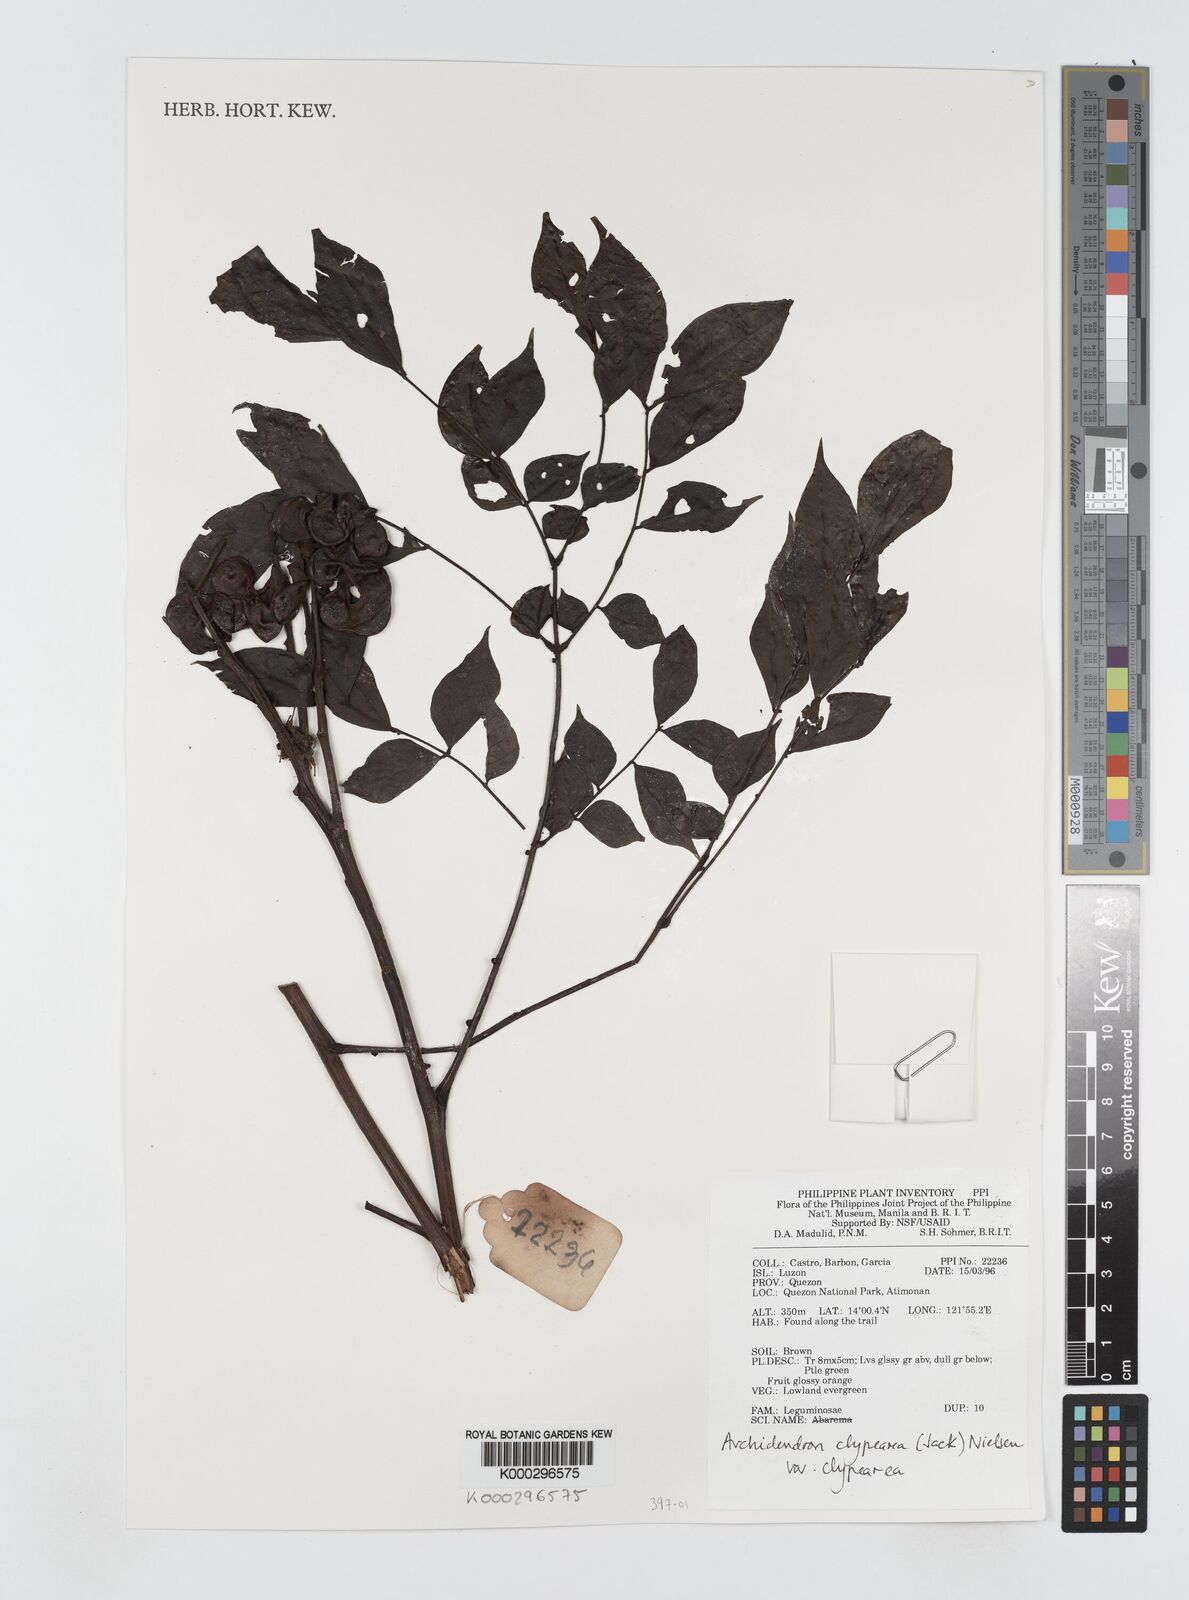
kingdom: Plantae
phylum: Tracheophyta
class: Magnoliopsida
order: Fabales
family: Fabaceae
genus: Archidendron
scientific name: Archidendron clypearia
